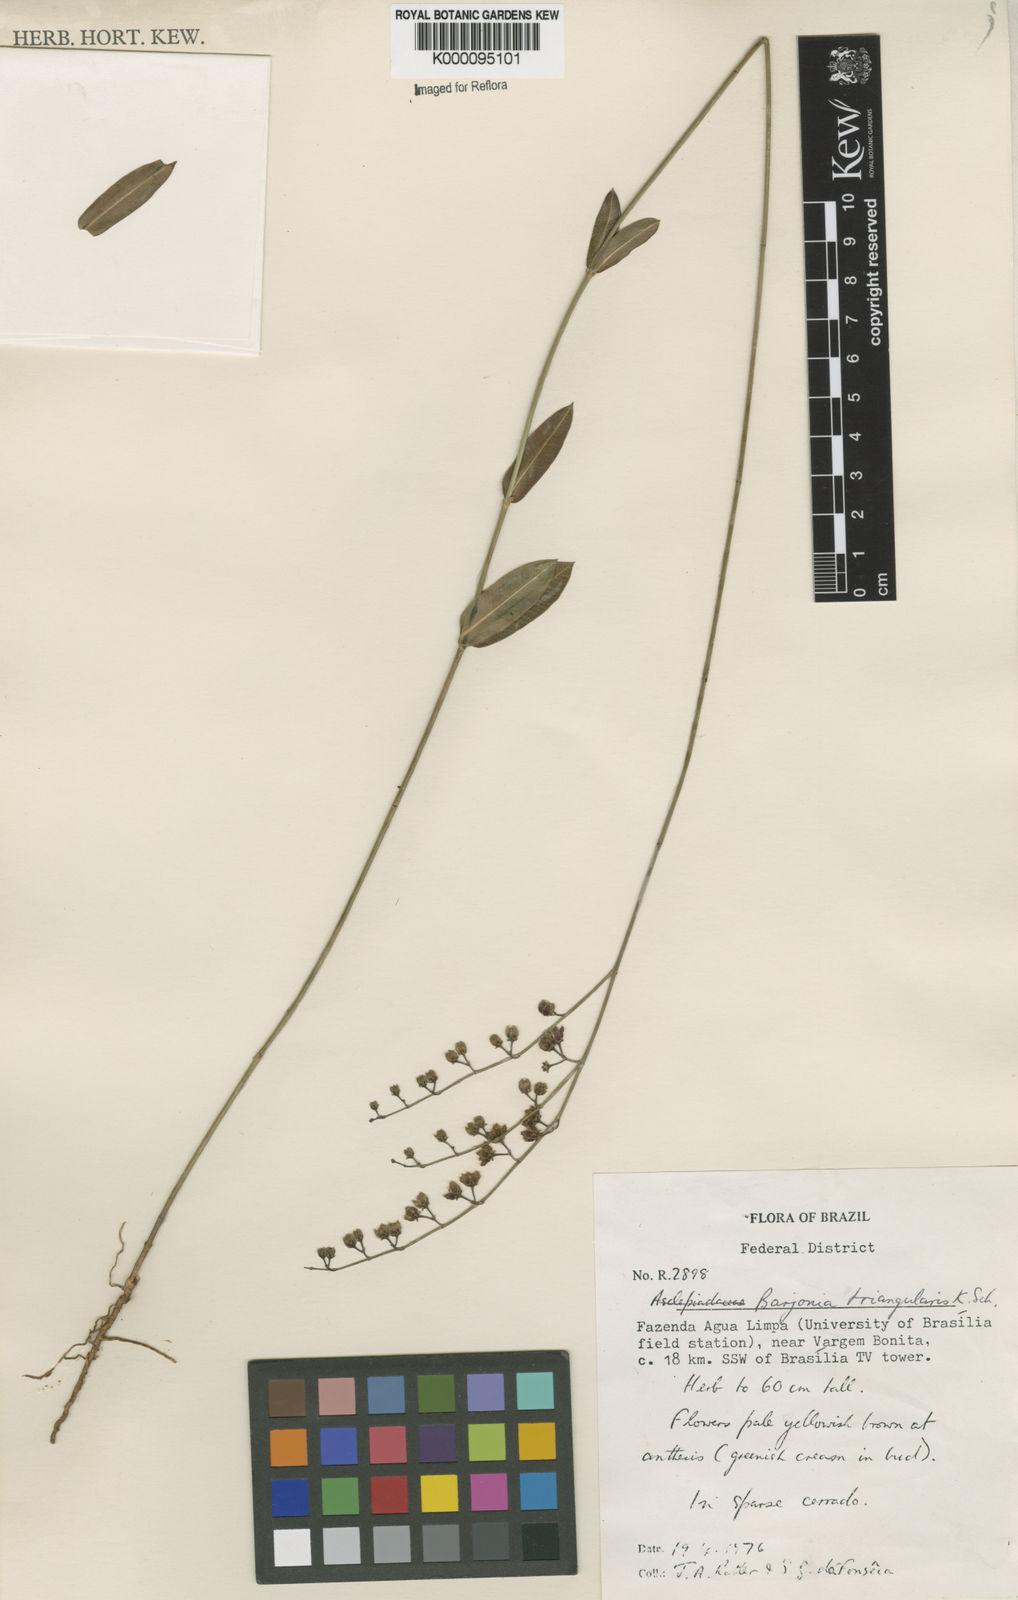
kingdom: Plantae
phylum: Tracheophyta
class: Magnoliopsida
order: Gentianales
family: Apocynaceae
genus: Barjonia
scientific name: Barjonia erecta
